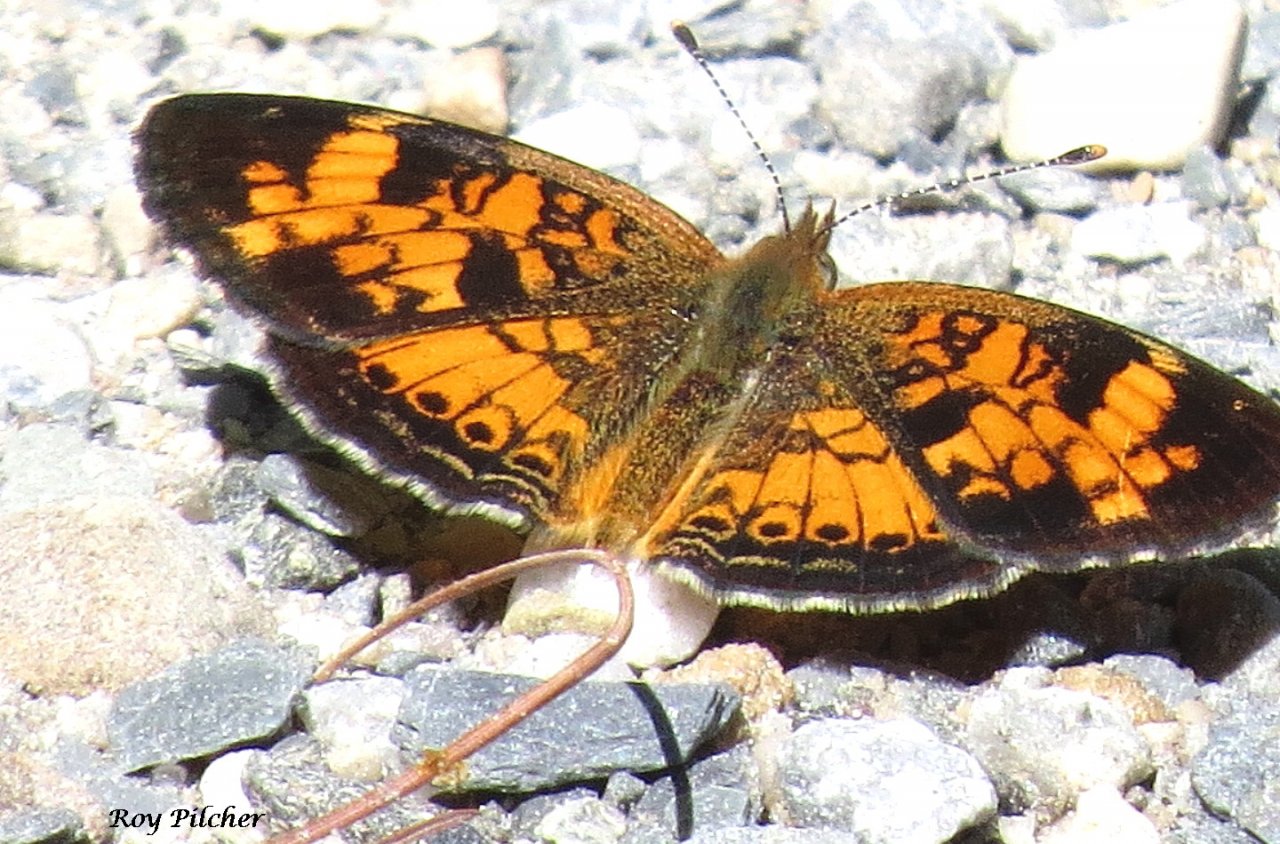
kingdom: Animalia
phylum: Arthropoda
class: Insecta
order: Lepidoptera
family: Nymphalidae
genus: Phyciodes
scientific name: Phyciodes tharos
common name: Northern Crescent
